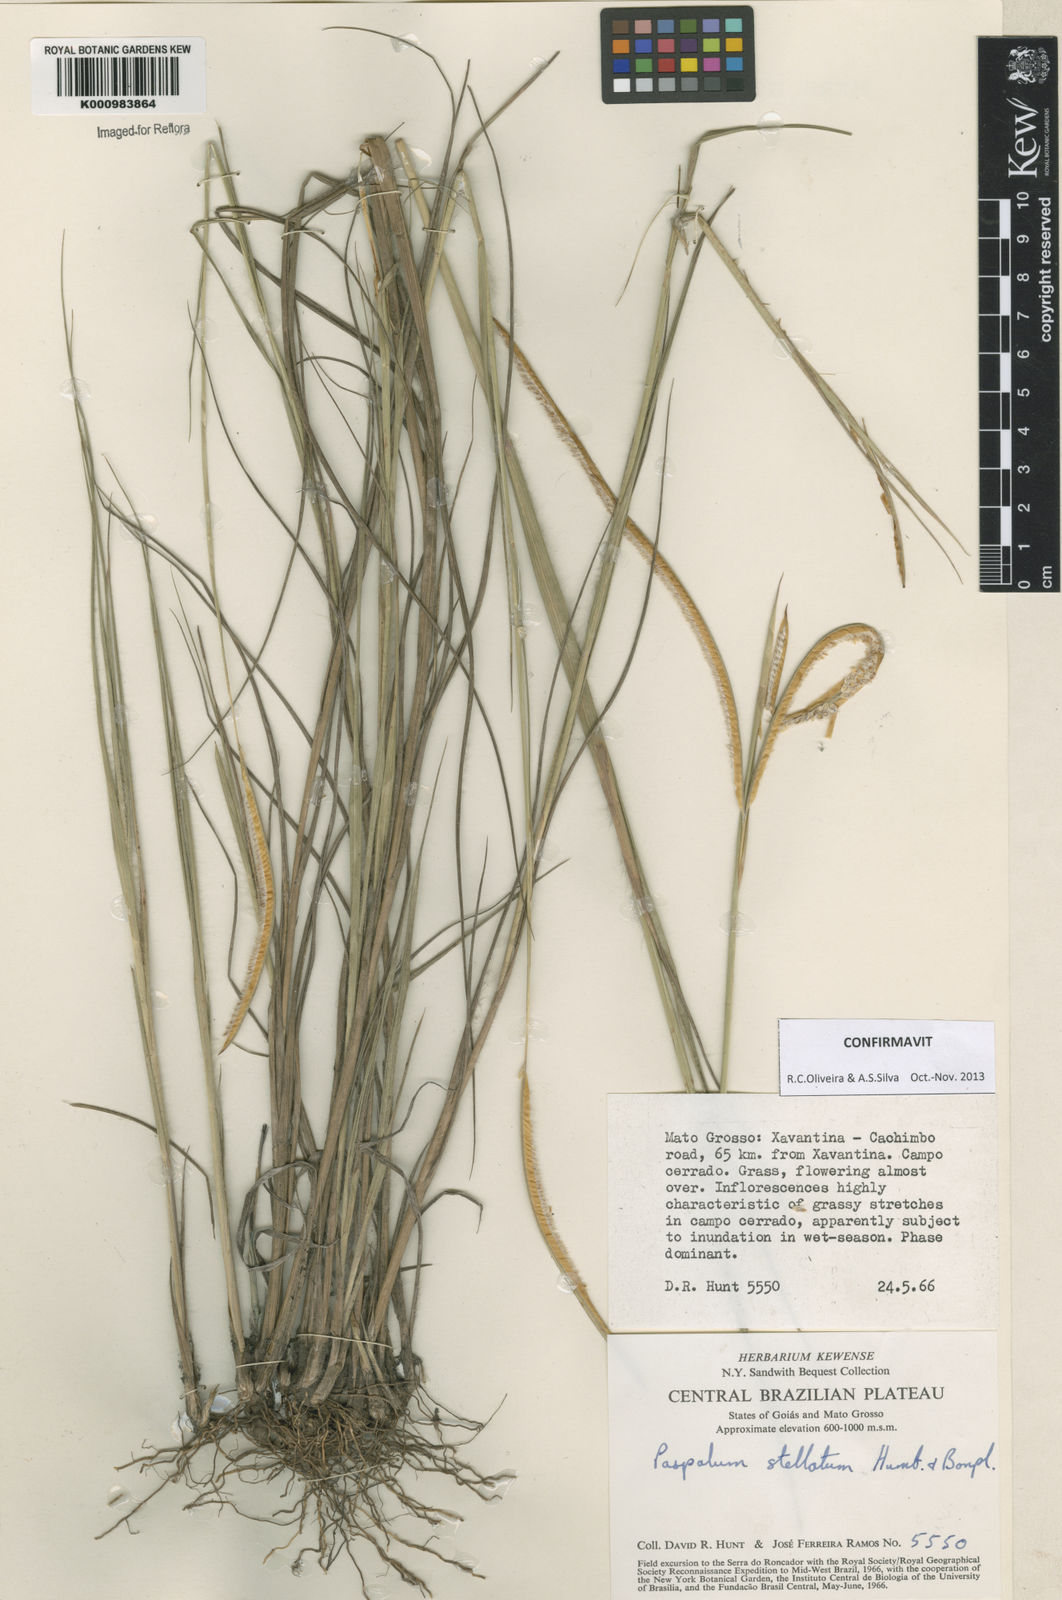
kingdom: Plantae
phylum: Tracheophyta
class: Liliopsida
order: Poales
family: Poaceae
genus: Paspalum
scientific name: Paspalum
